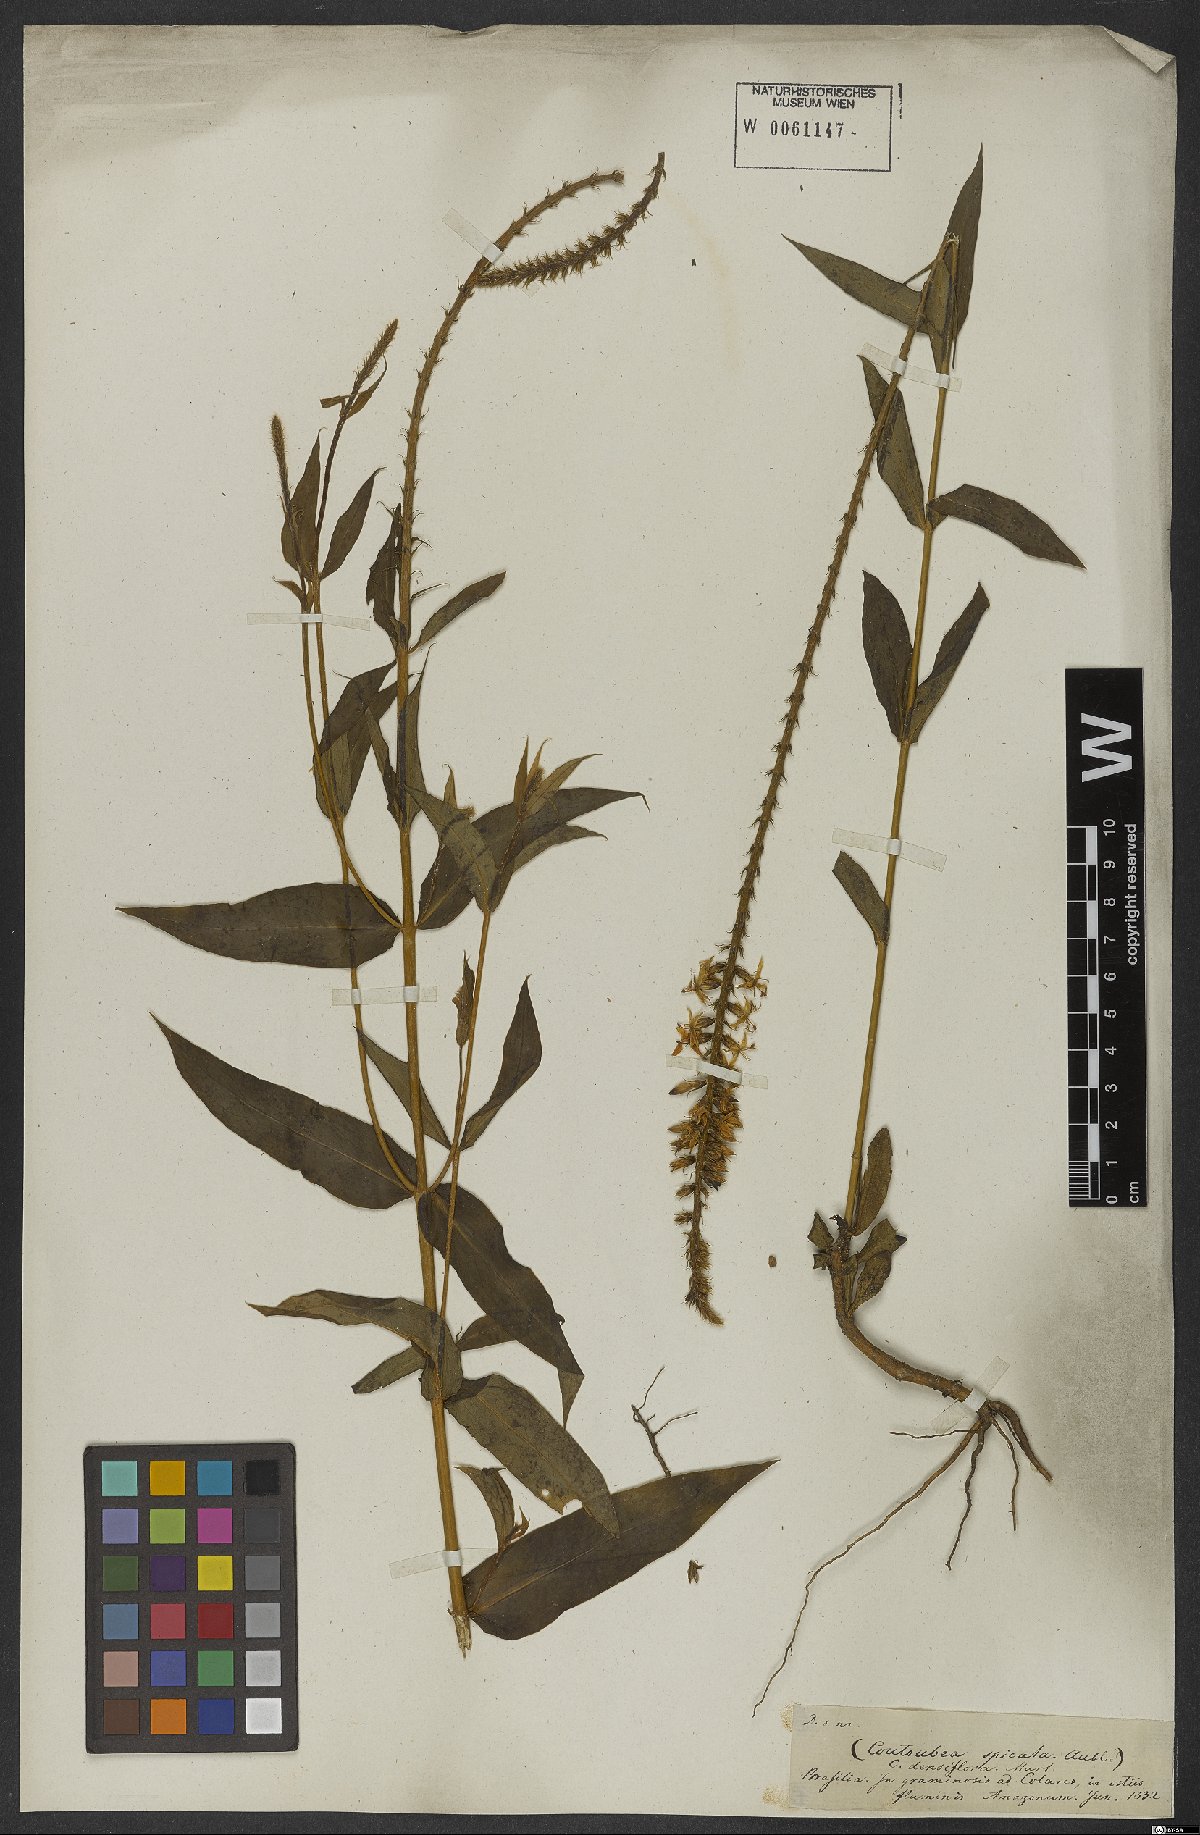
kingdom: Plantae
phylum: Tracheophyta
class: Magnoliopsida
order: Gentianales
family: Gentianaceae
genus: Coutoubea
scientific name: Coutoubea spicata
